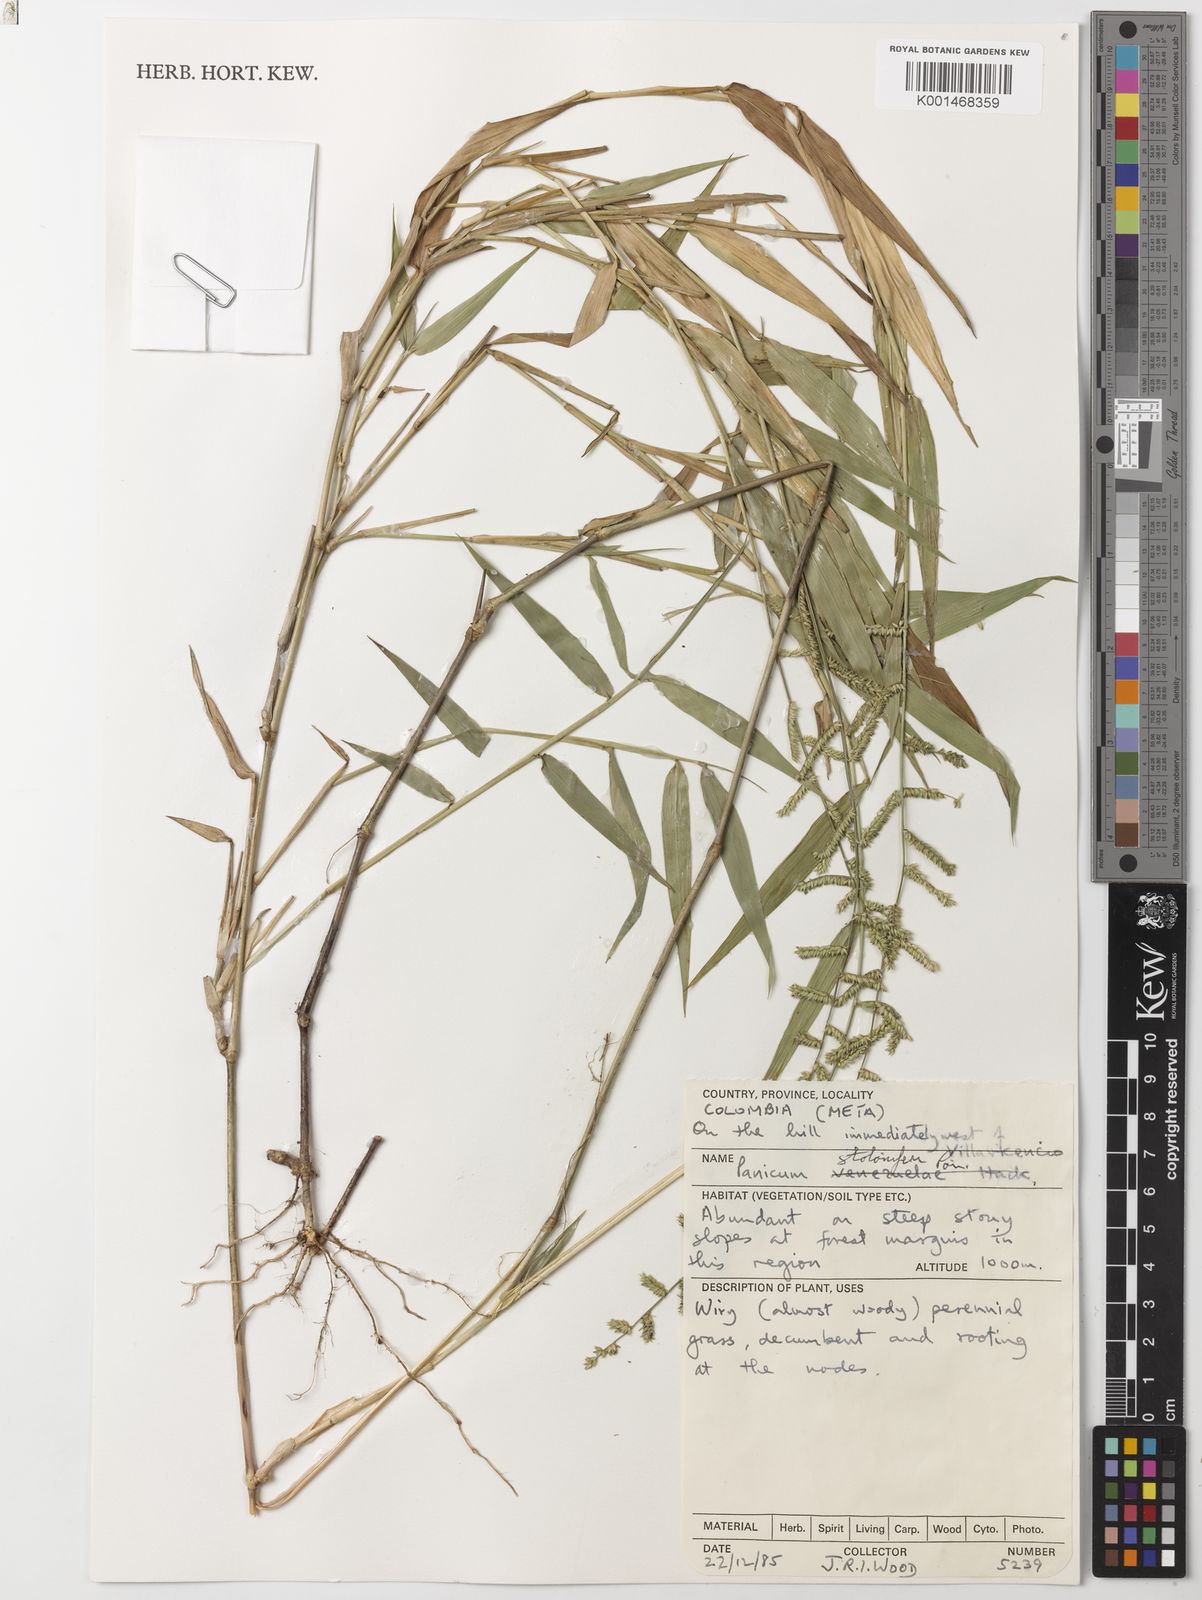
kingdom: Plantae
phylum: Tracheophyta
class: Liliopsida
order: Poales
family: Poaceae
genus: Ocellochloa
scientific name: Ocellochloa andreana
